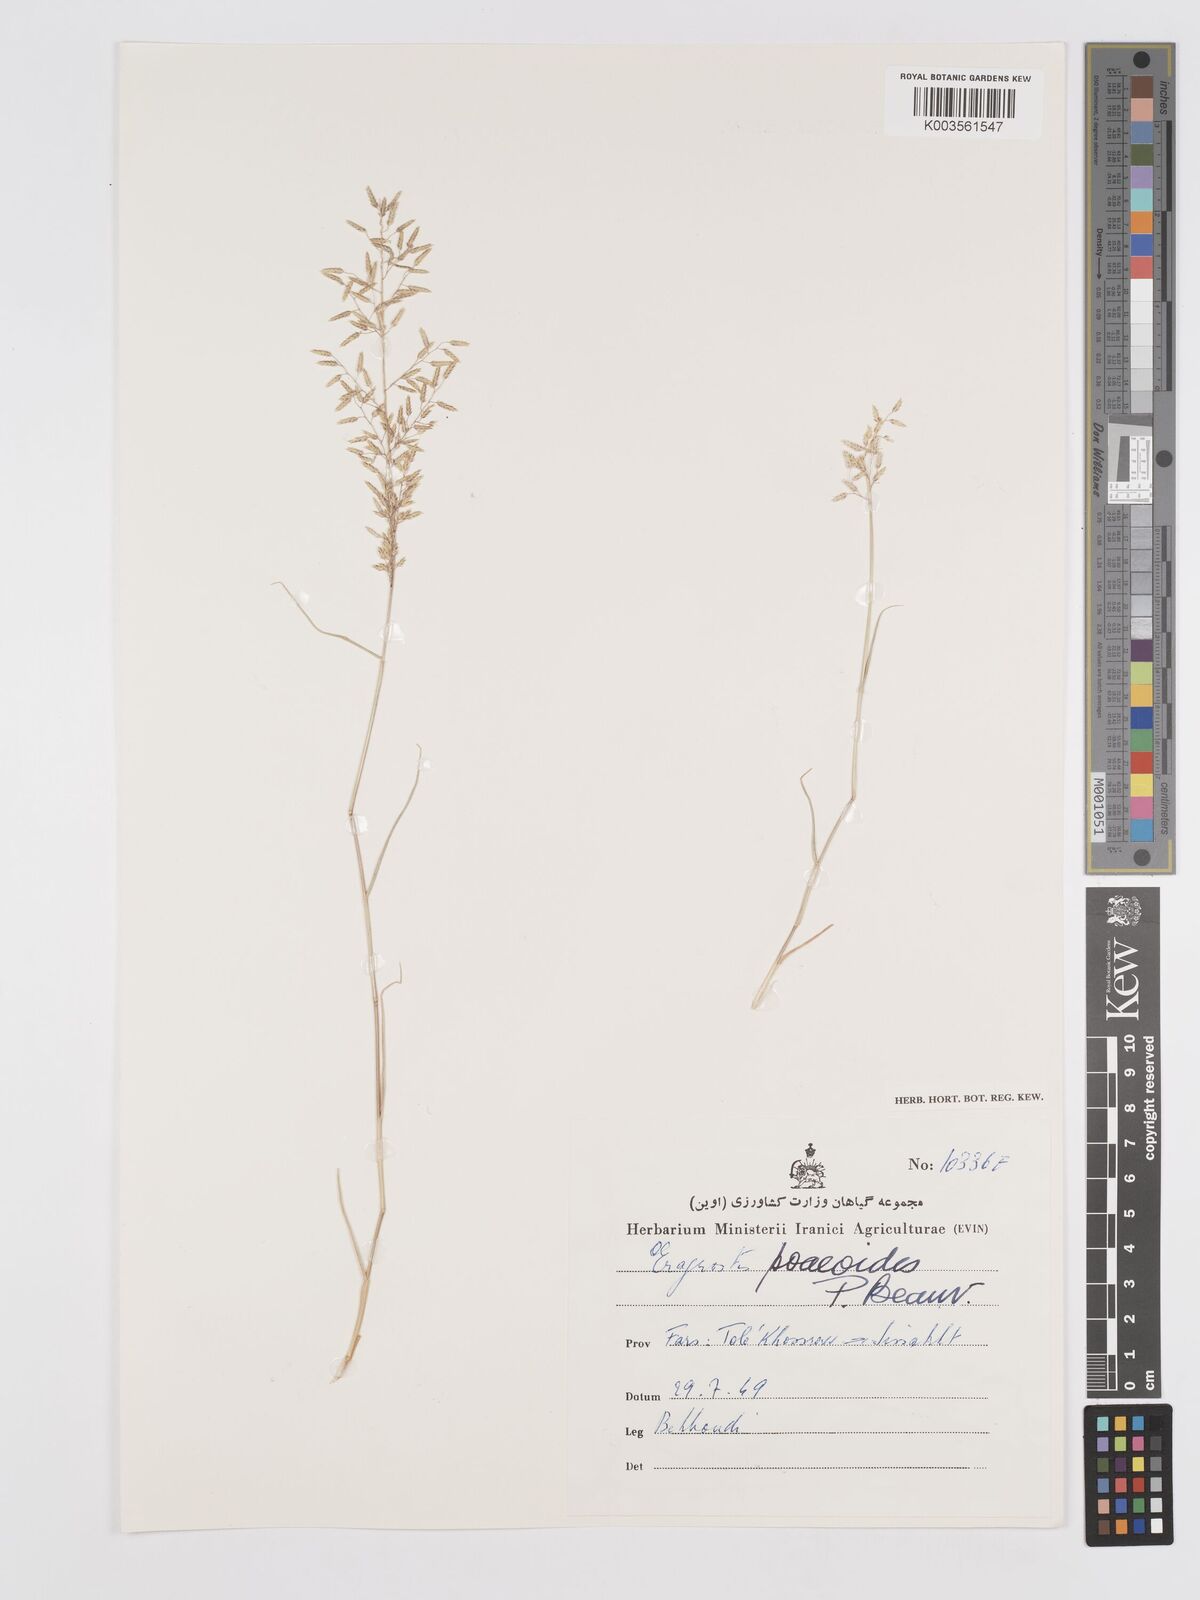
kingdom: Plantae
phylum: Tracheophyta
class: Liliopsida
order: Poales
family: Poaceae
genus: Eragrostis
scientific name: Eragrostis minor
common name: Small love-grass
